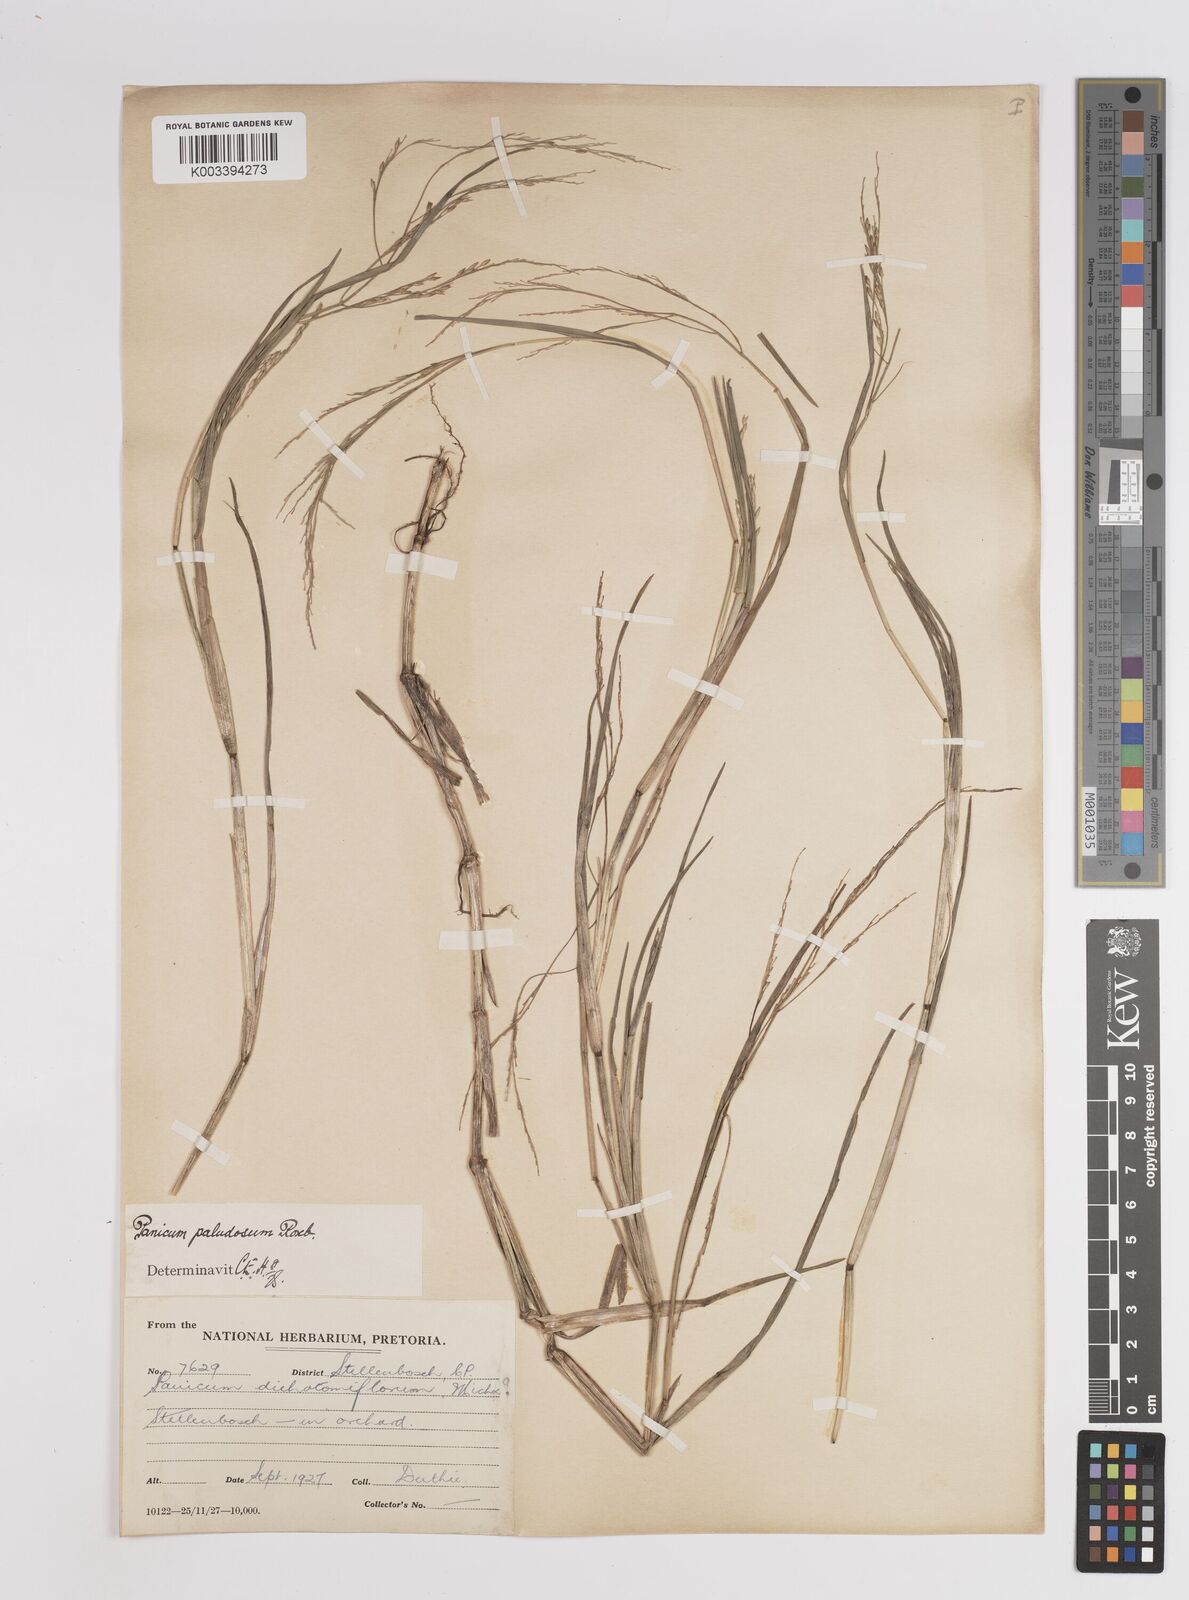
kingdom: Plantae
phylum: Tracheophyta
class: Liliopsida
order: Poales
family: Poaceae
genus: Panicum
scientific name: Panicum subalbidum
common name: Elbow buffalo grass
